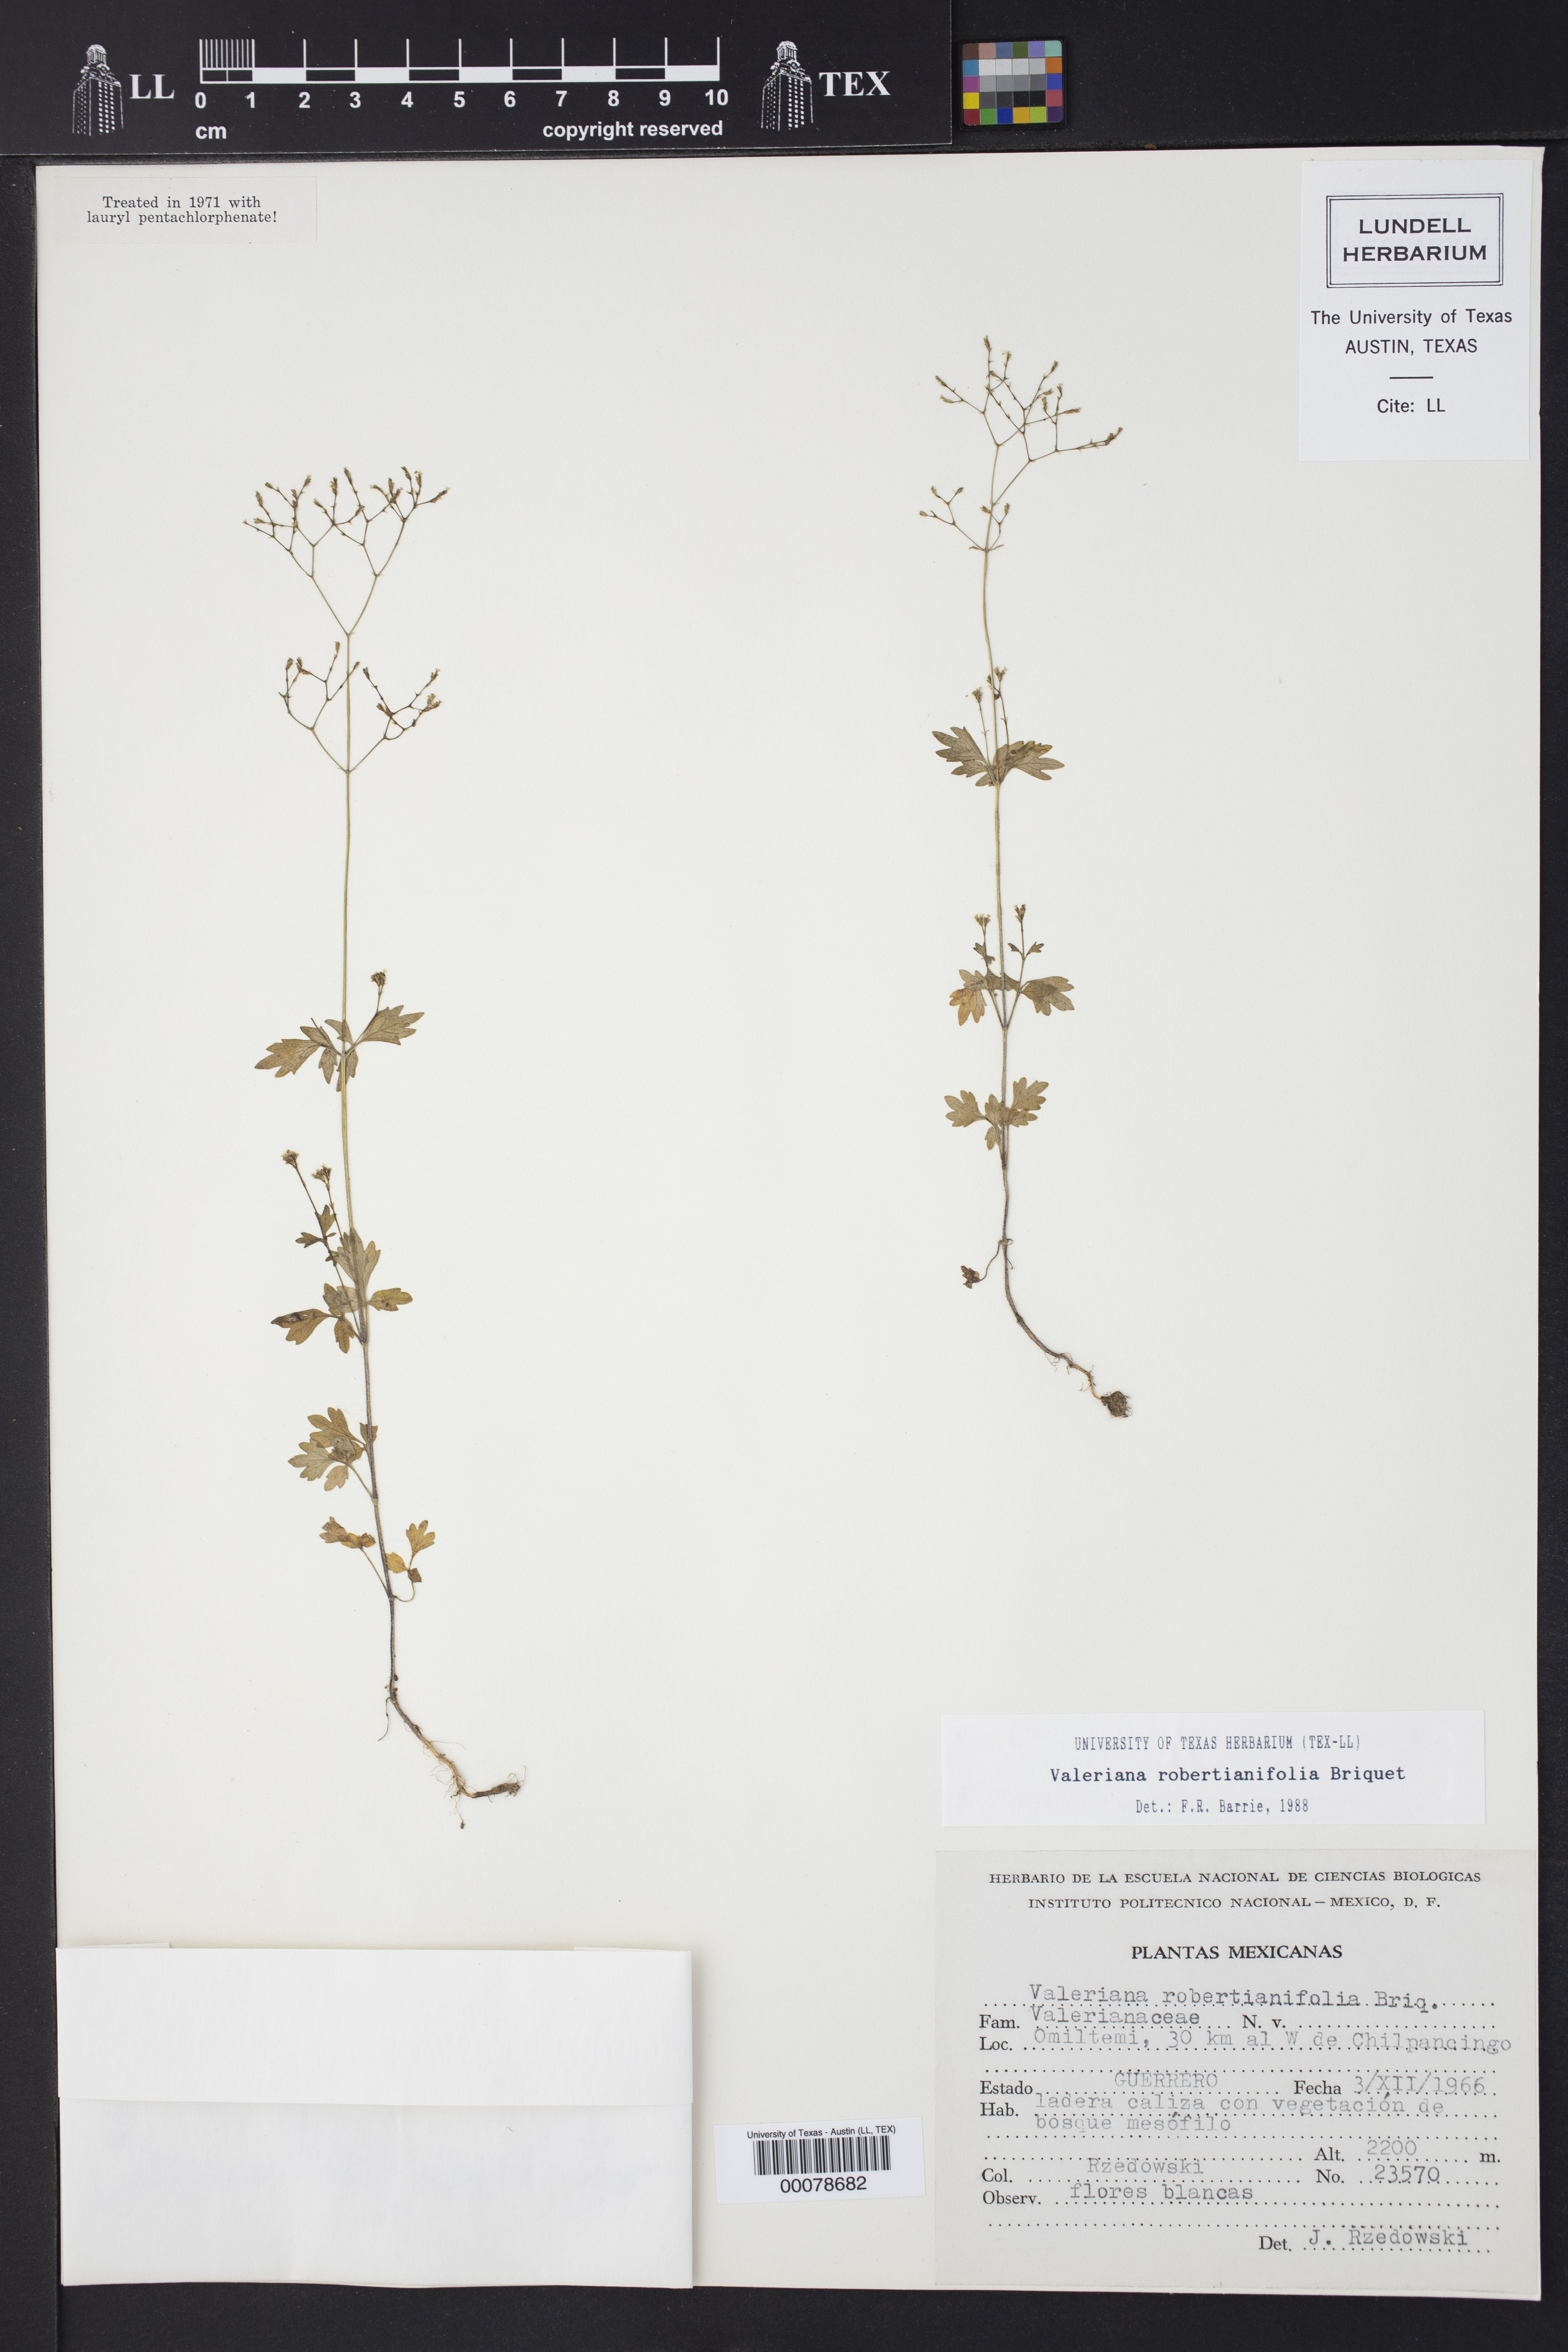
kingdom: Plantae
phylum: Tracheophyta
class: Magnoliopsida
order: Dipsacales
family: Caprifoliaceae
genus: Valeriana
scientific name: Valeriana robertianifolia
